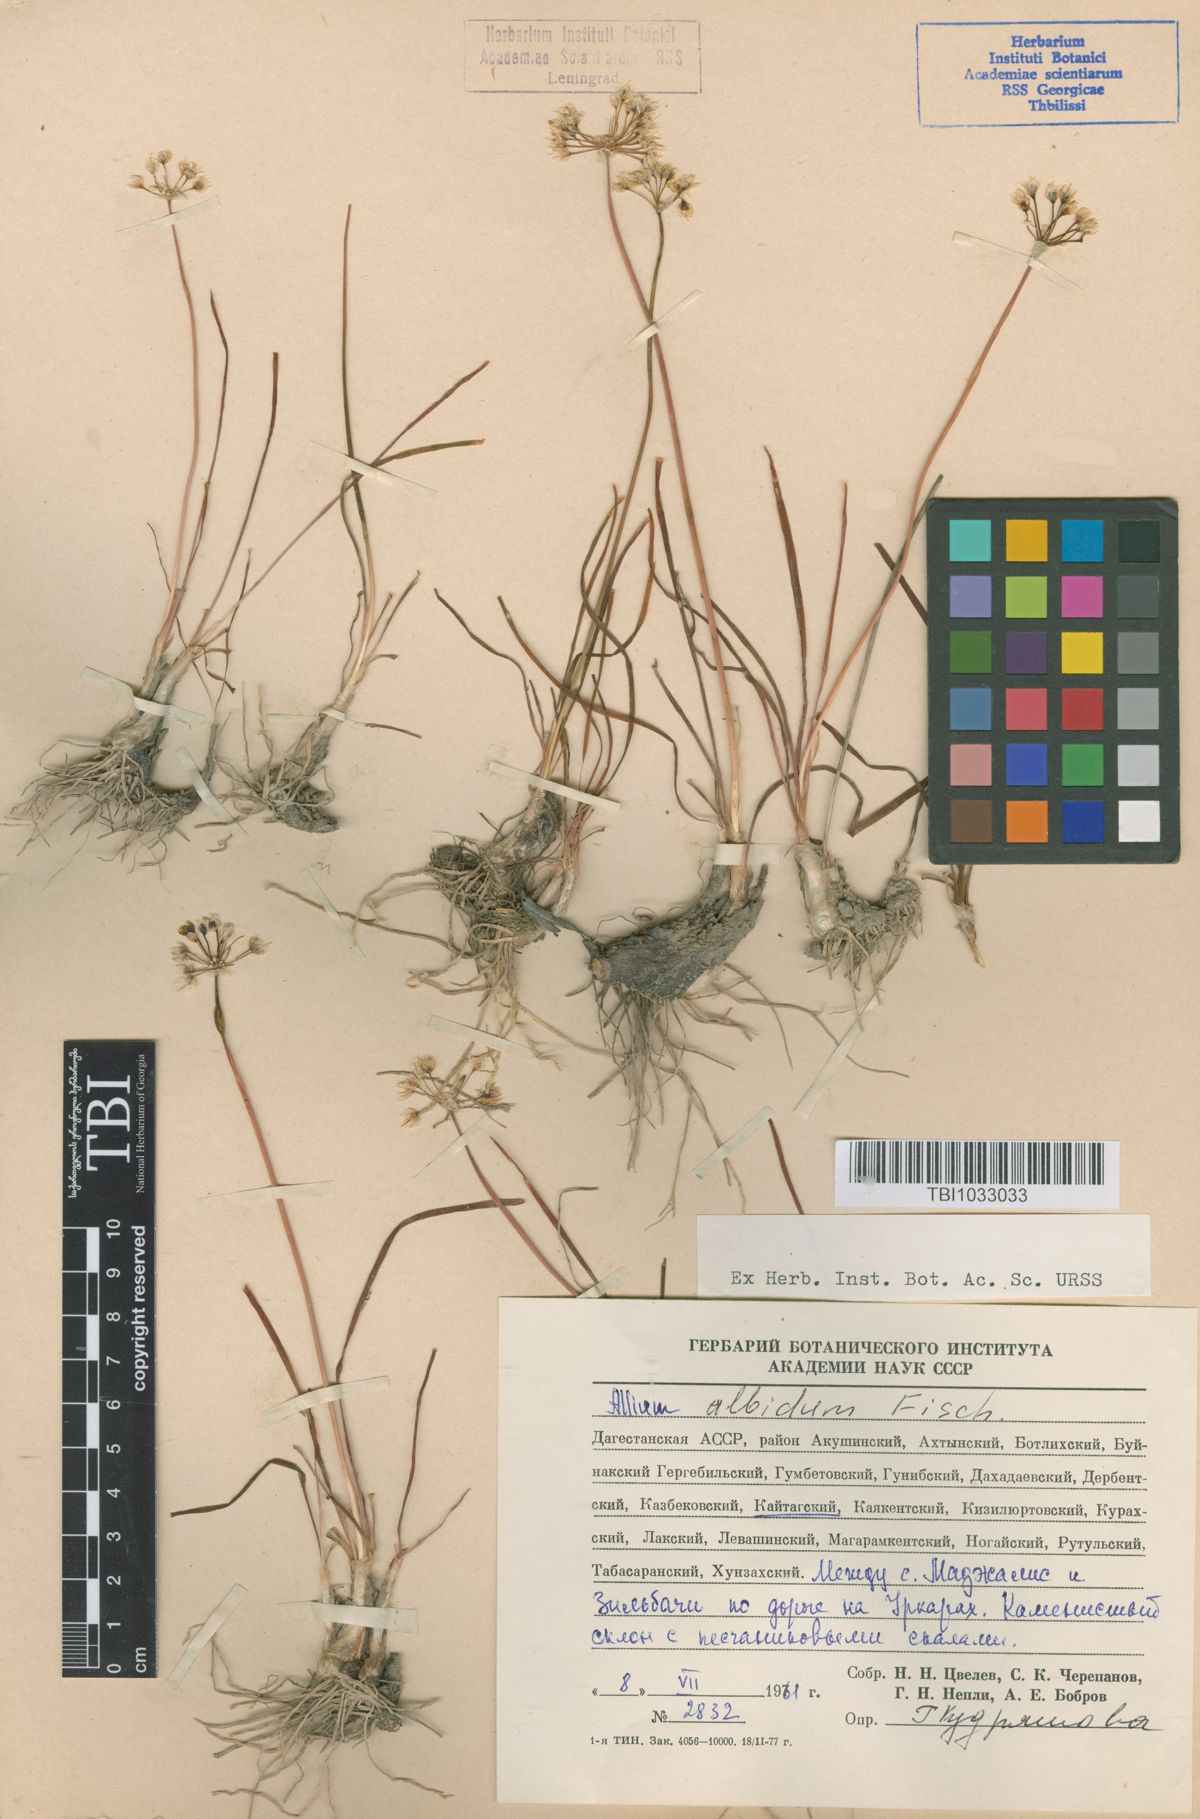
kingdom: Plantae
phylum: Tracheophyta
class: Liliopsida
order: Asparagales
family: Amaryllidaceae
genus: Allium
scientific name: Allium denudatum
